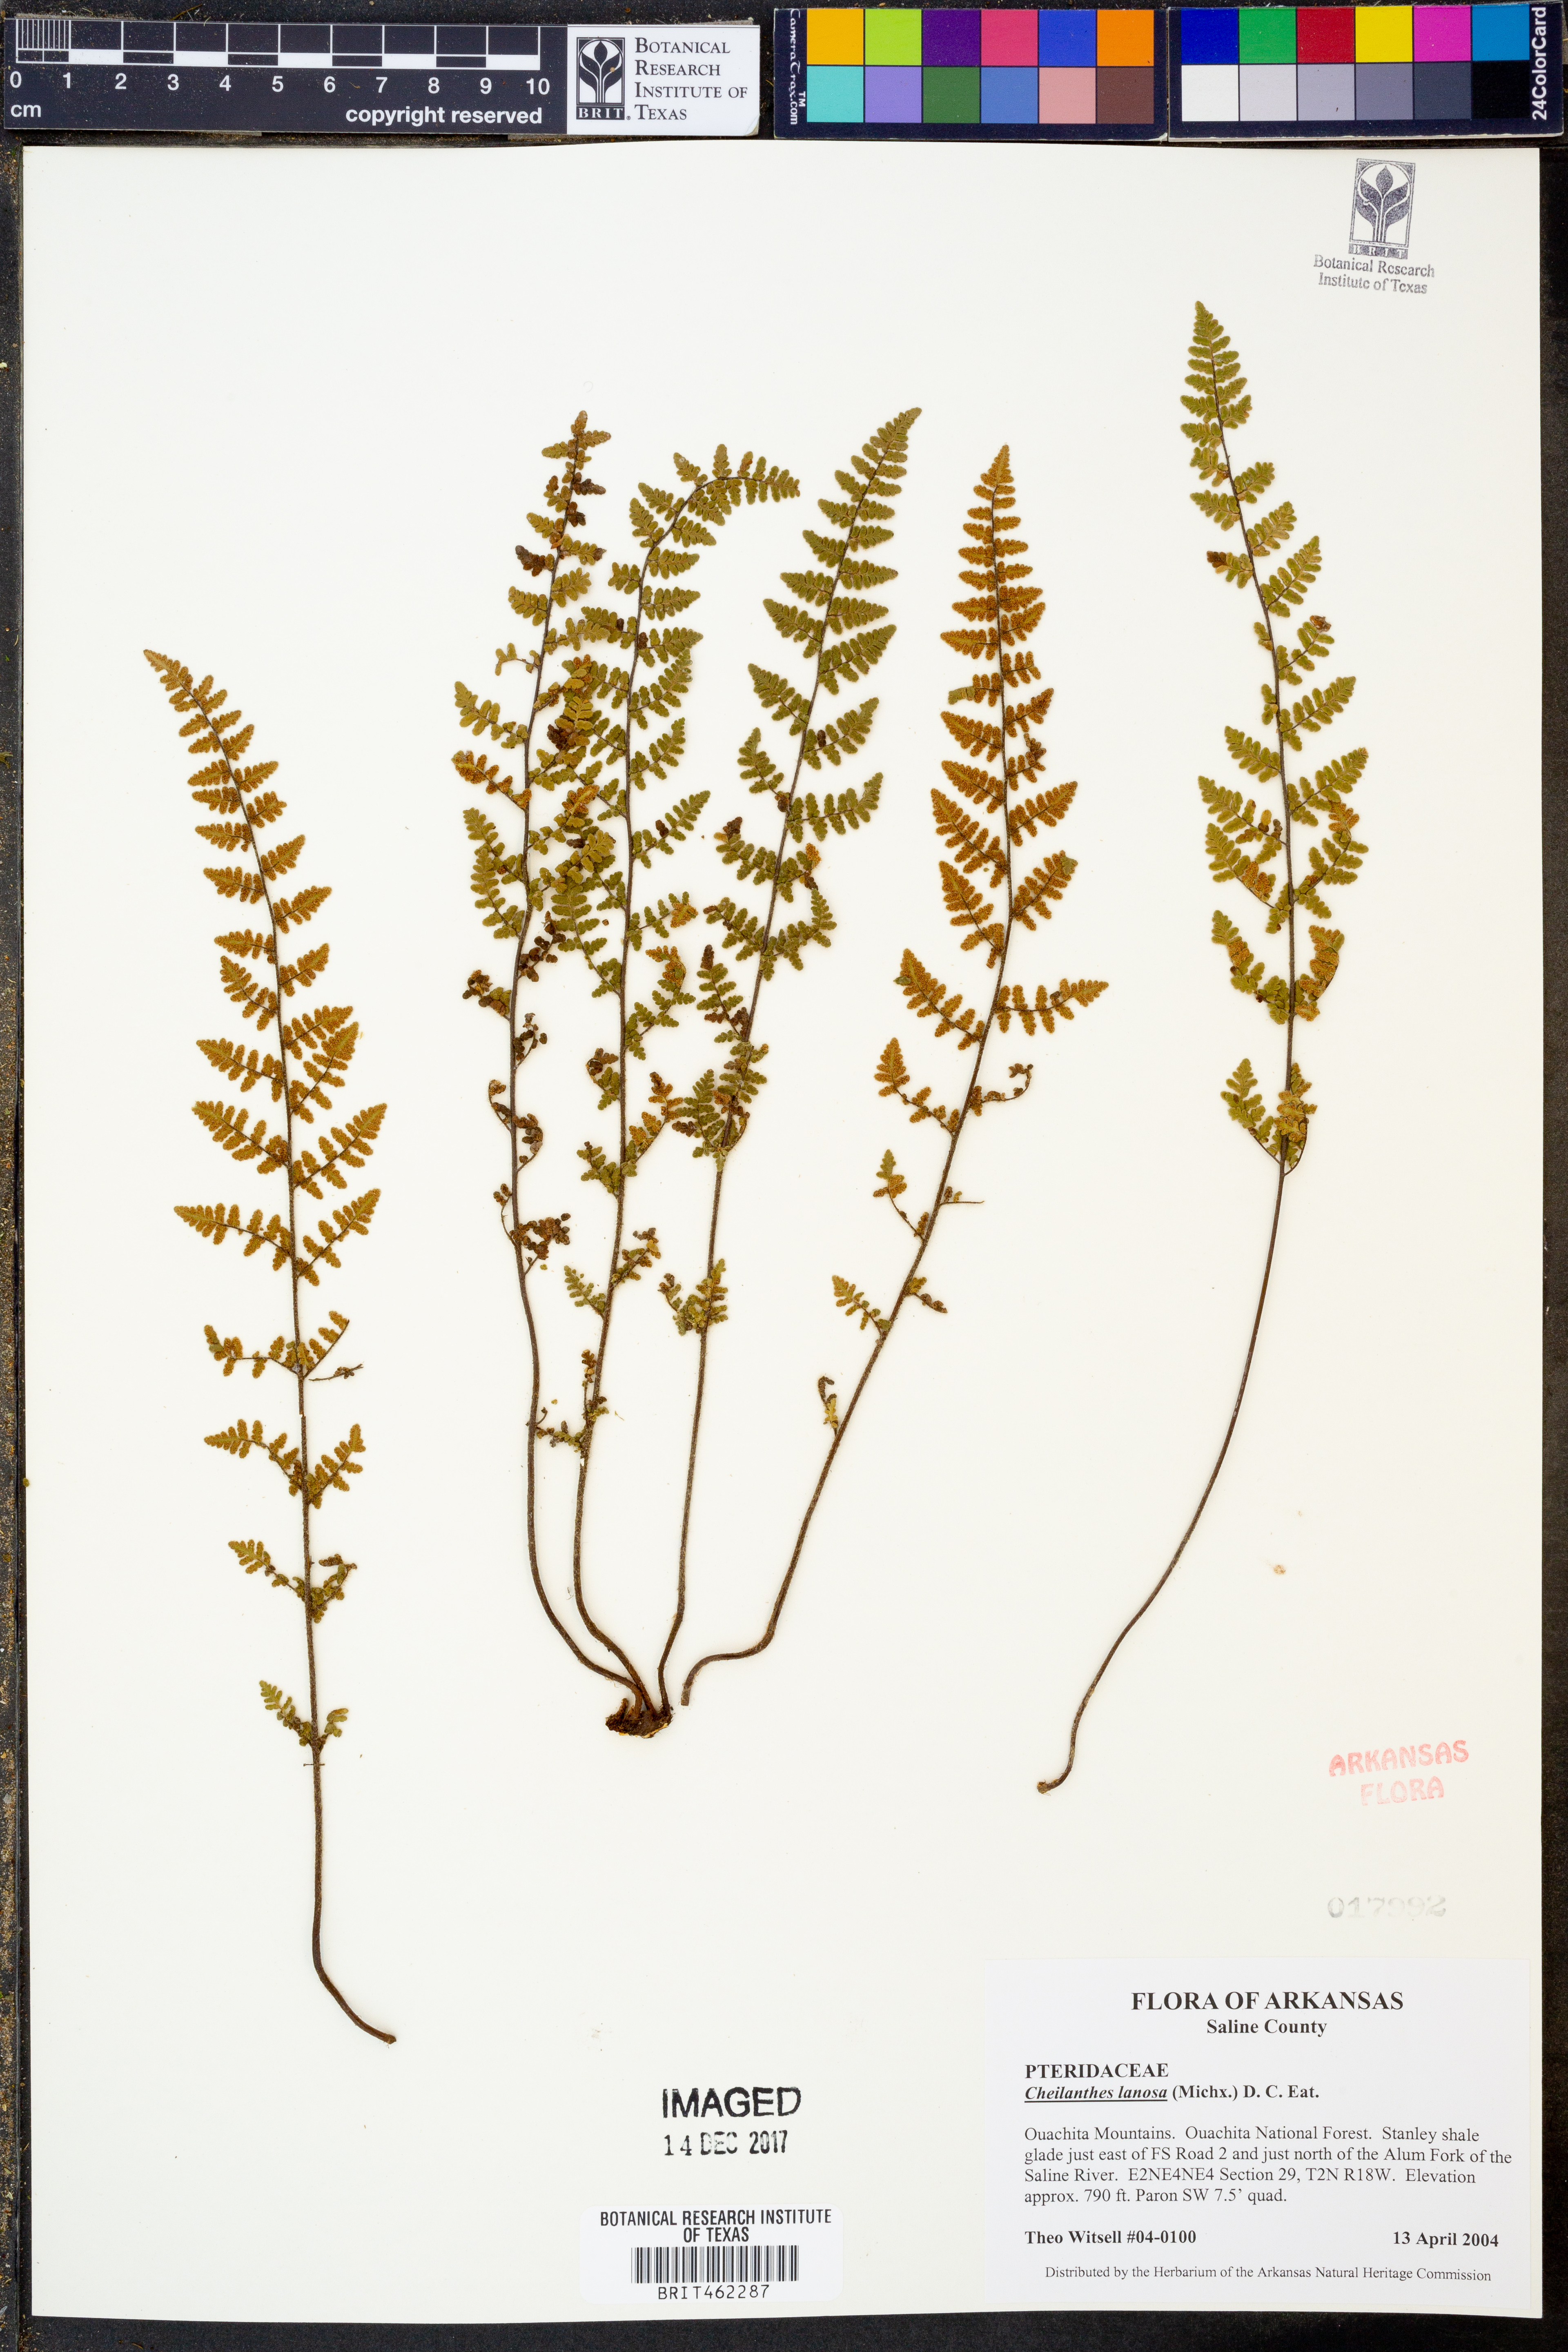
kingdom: Plantae
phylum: Tracheophyta
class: Polypodiopsida
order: Polypodiales
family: Pteridaceae
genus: Myriopteris
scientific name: Myriopteris lanosa
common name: Hairy lip fern
